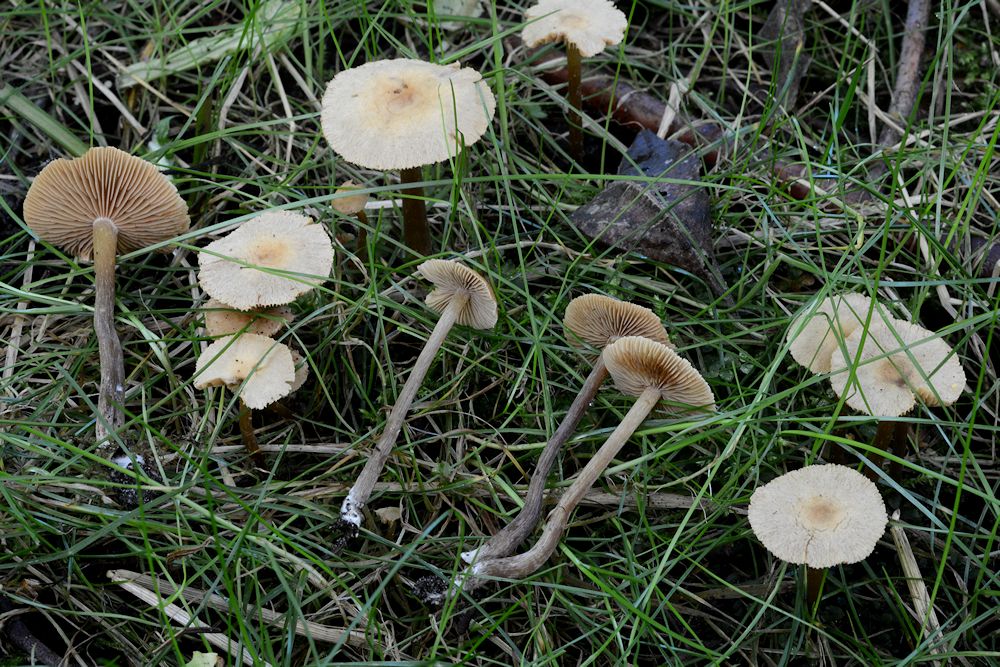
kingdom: Fungi
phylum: Basidiomycota
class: Agaricomycetes
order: Agaricales
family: Hymenogastraceae
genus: Naucoria
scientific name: Naucoria escharioides
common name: lys elle-knaphat
